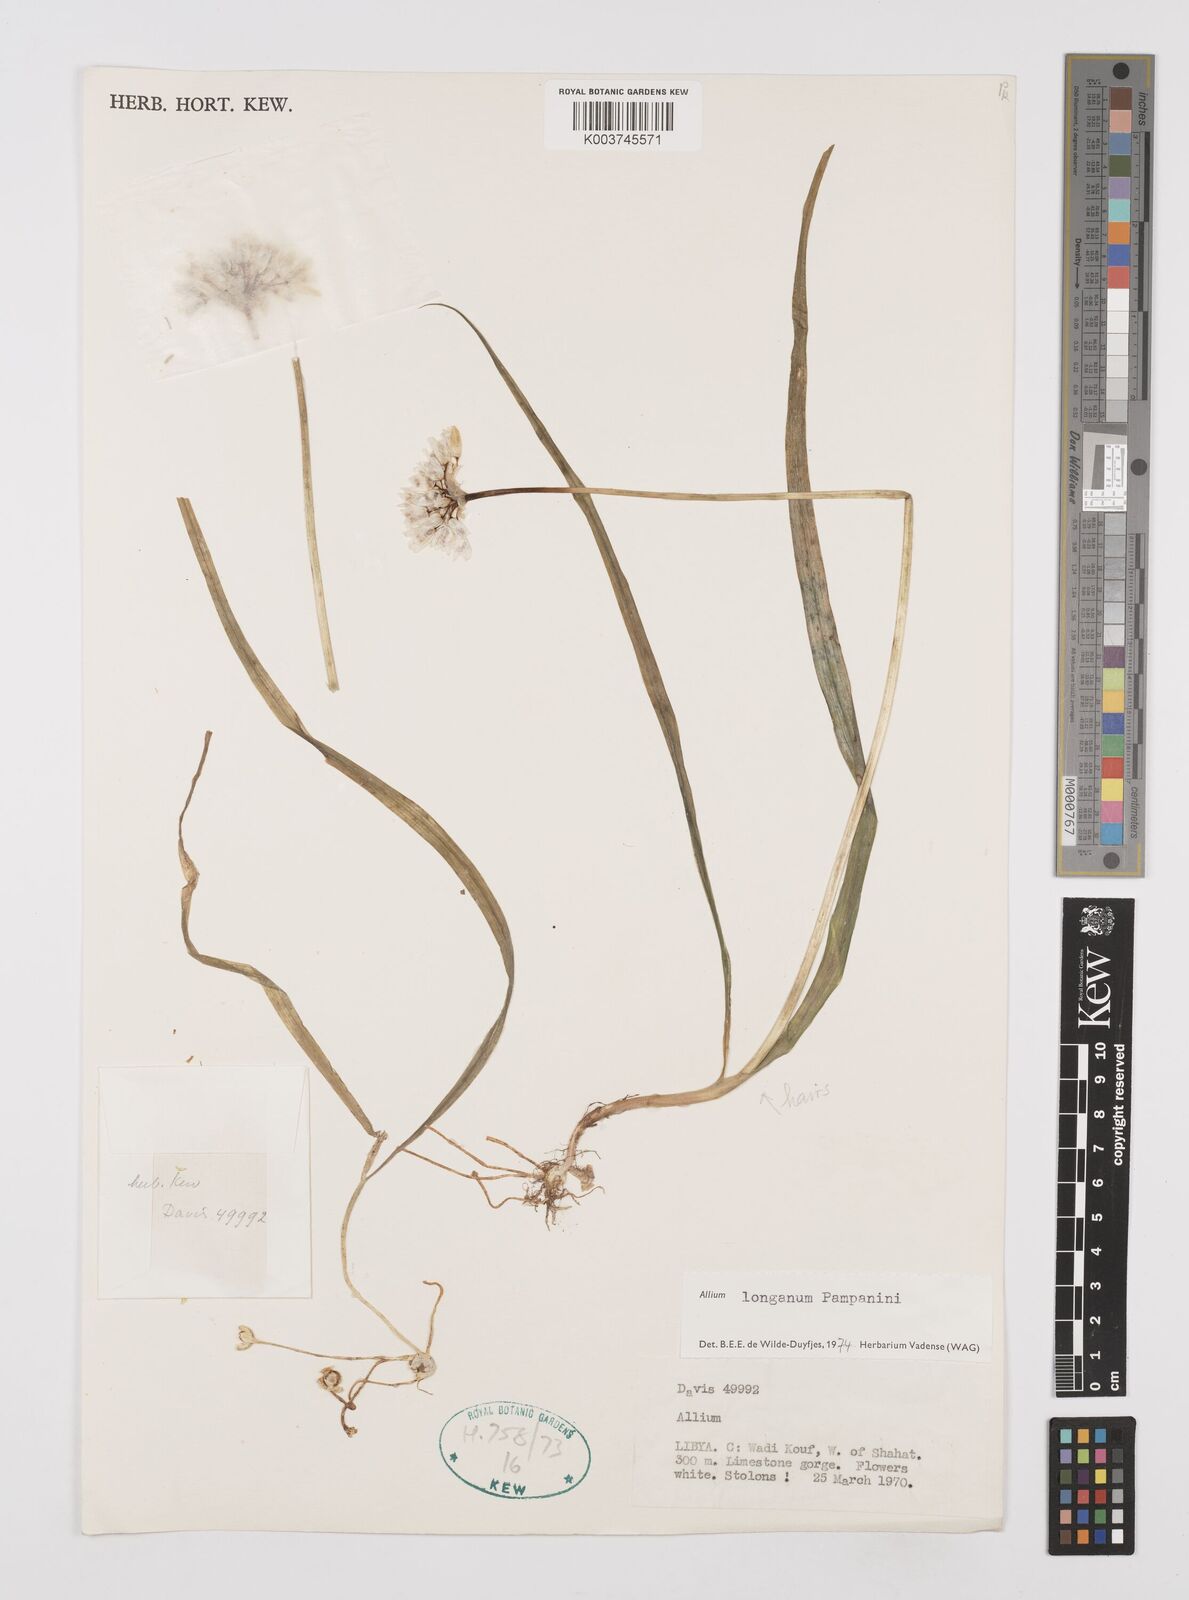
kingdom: Plantae
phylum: Tracheophyta
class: Liliopsida
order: Asparagales
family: Amaryllidaceae
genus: Allium
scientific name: Allium longanum
